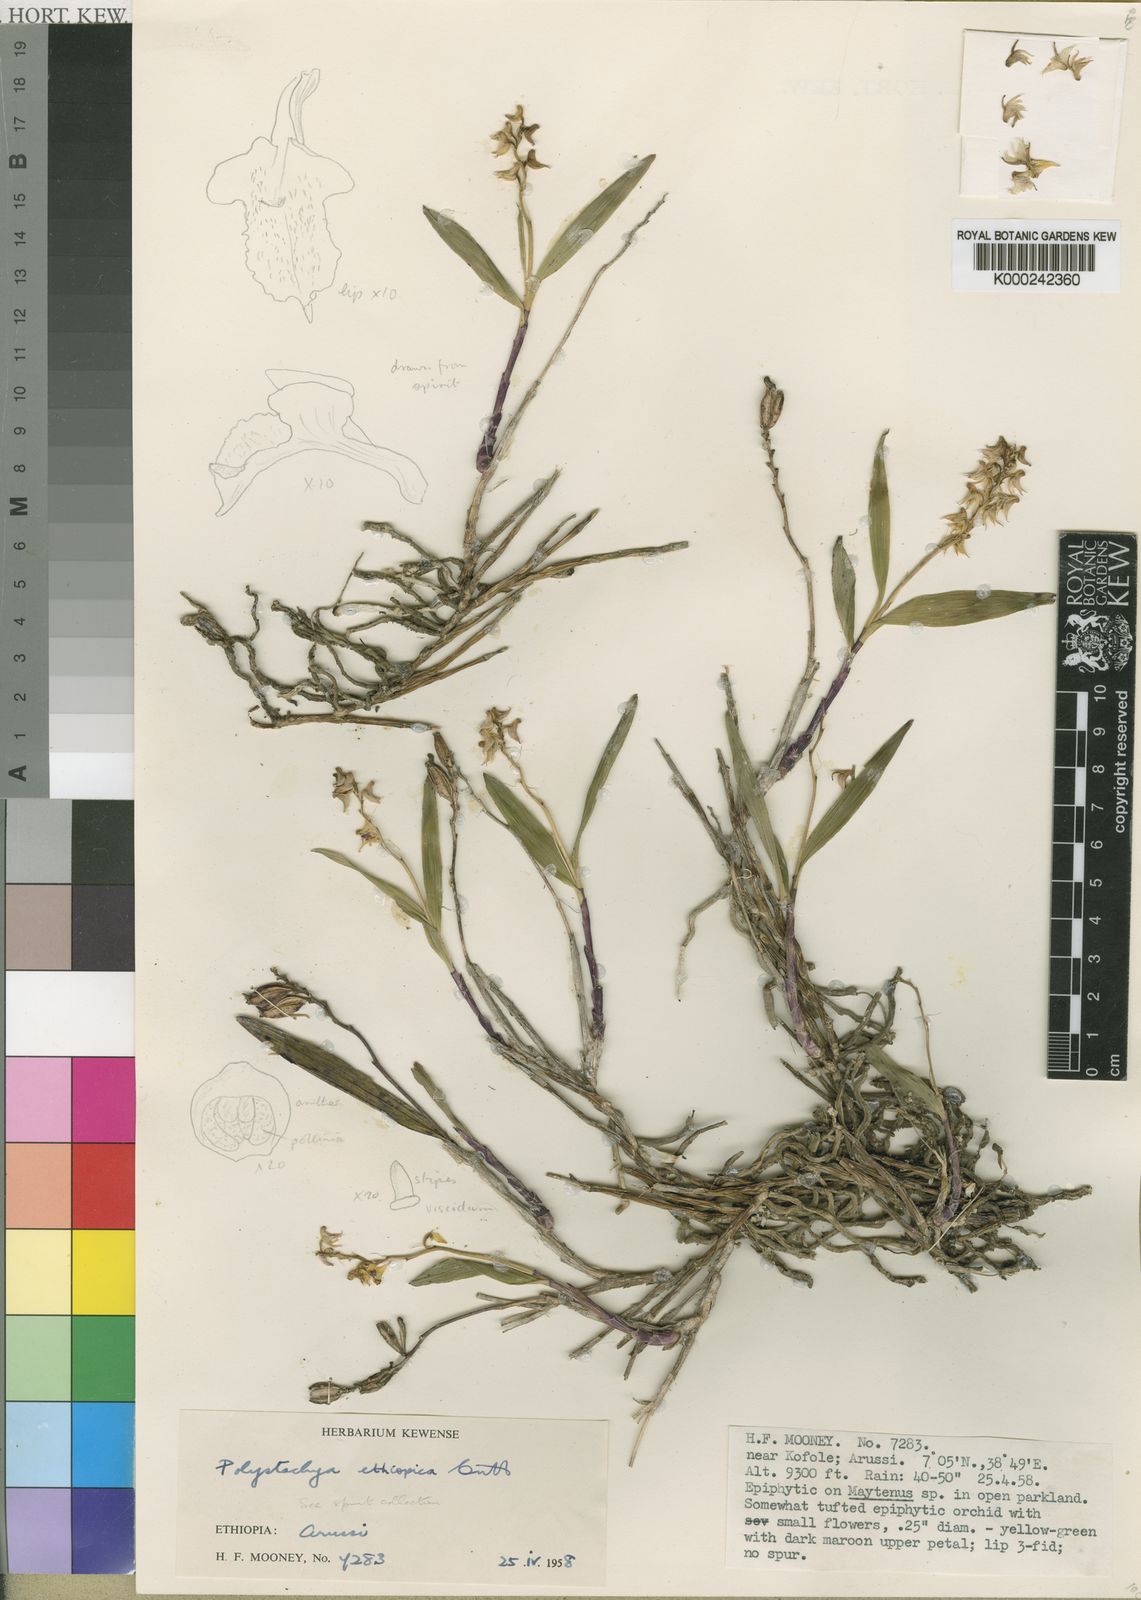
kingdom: Plantae
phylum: Tracheophyta
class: Liliopsida
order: Asparagales
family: Orchidaceae
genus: Polystachya
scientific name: Polystachya
